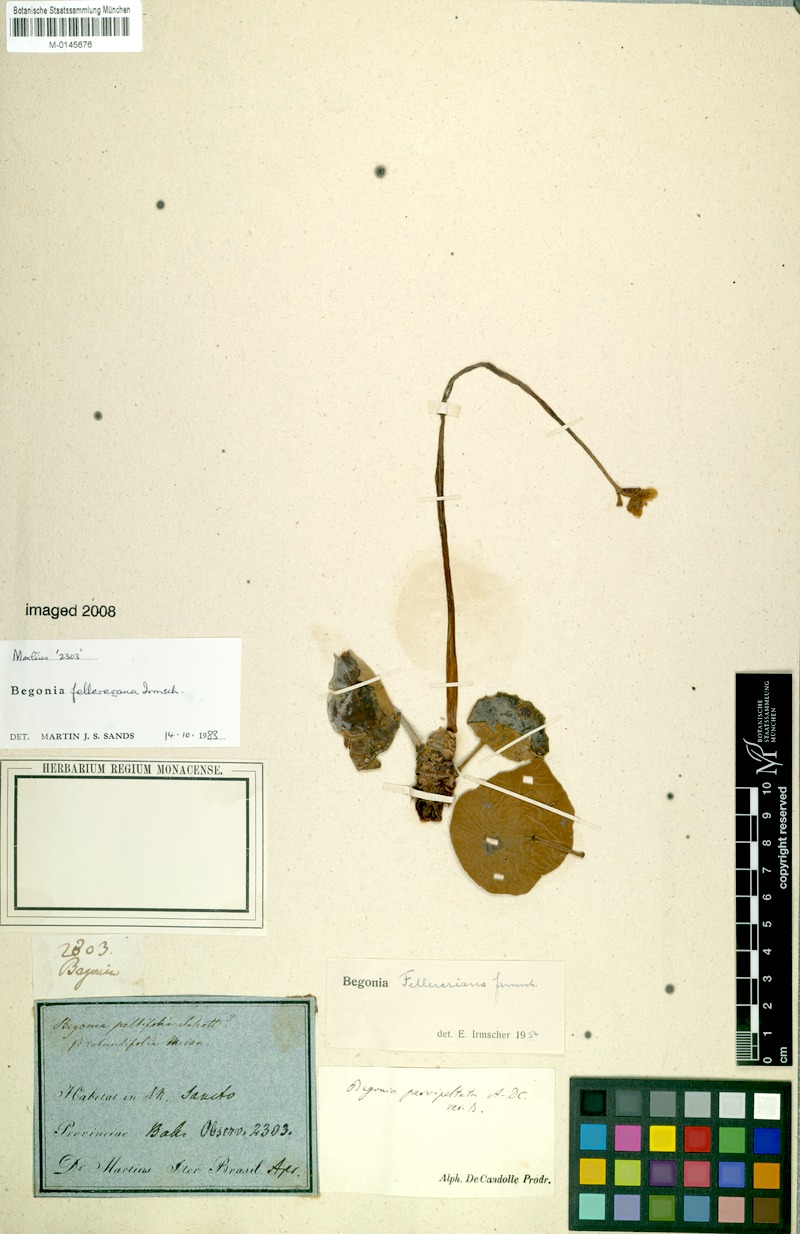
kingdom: Plantae
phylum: Tracheophyta
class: Magnoliopsida
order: Cucurbitales
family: Begoniaceae
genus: Begonia
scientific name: Begonia fellereriana
